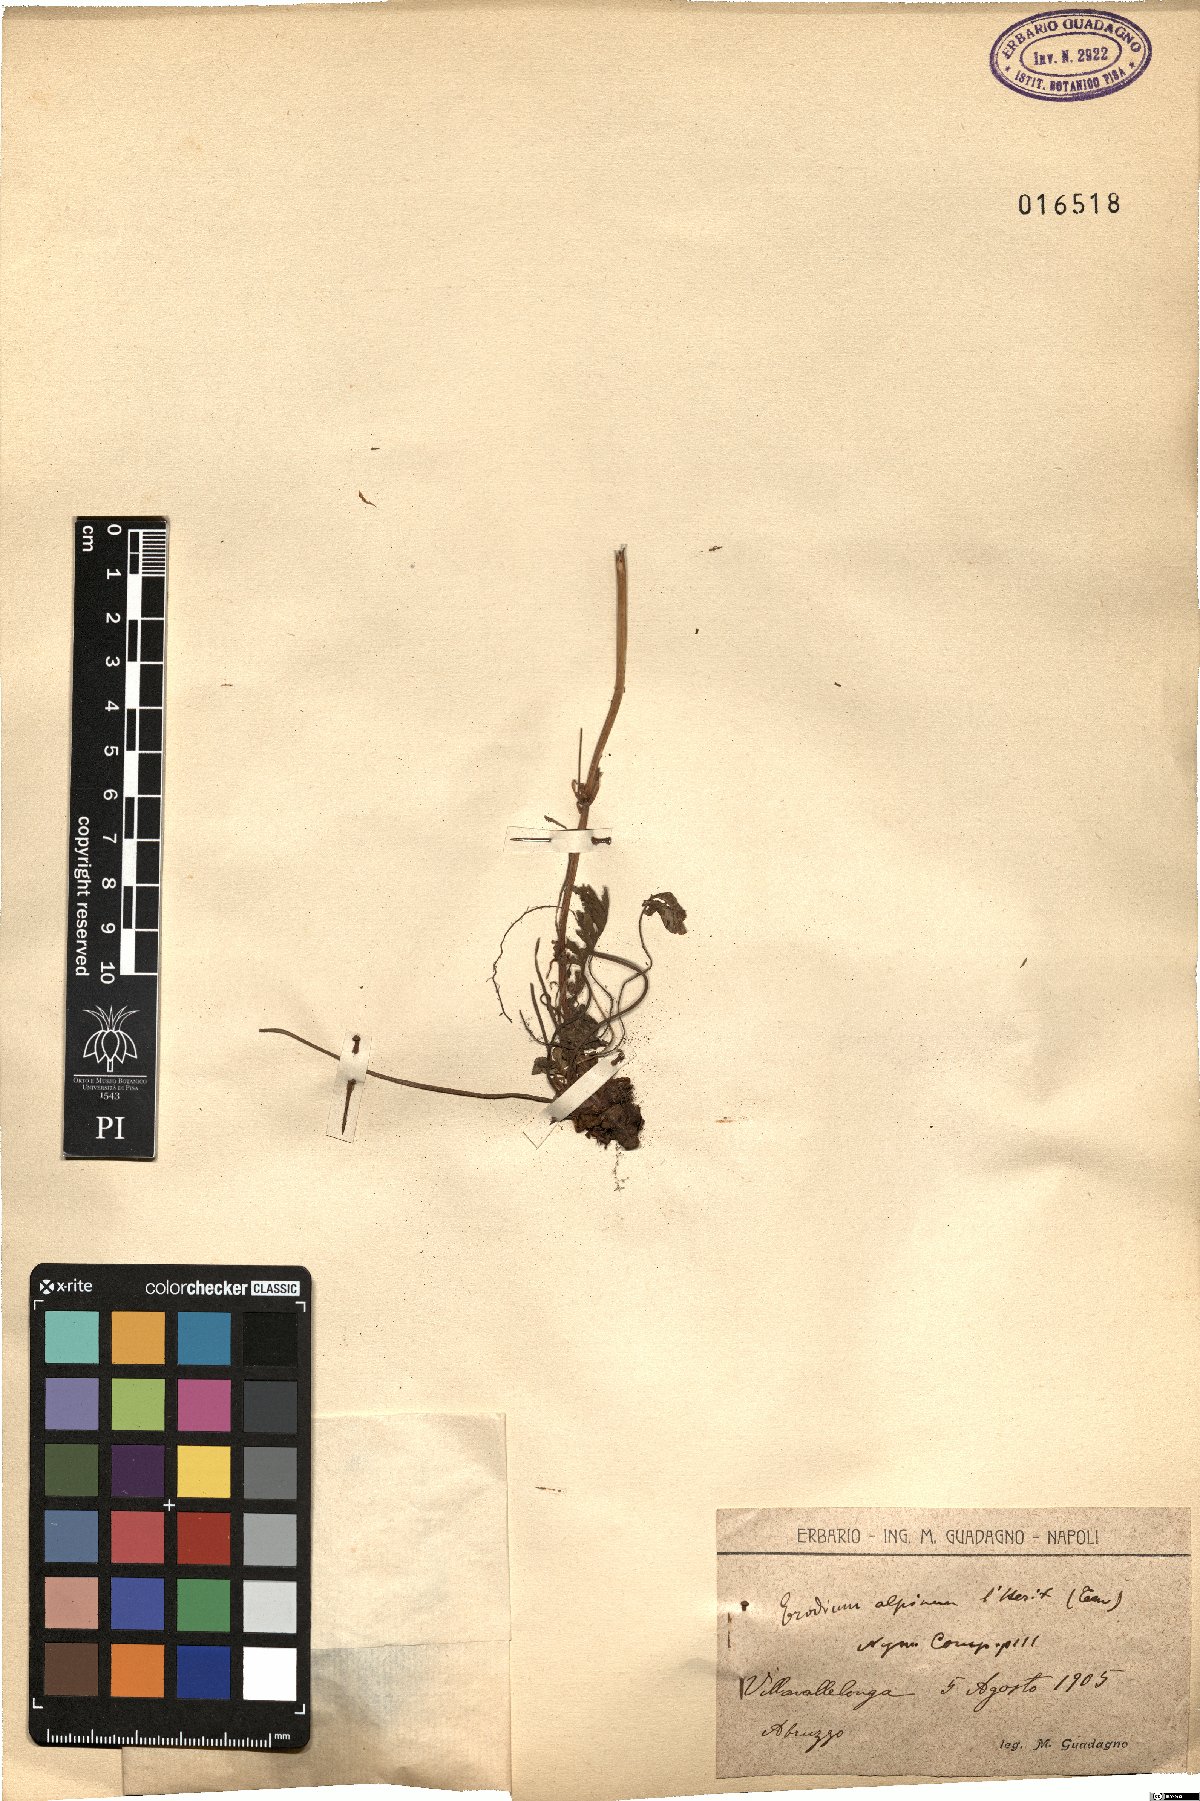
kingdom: Plantae
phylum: Tracheophyta
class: Magnoliopsida
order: Geraniales
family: Geraniaceae
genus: Erodium
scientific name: Erodium alpinum
